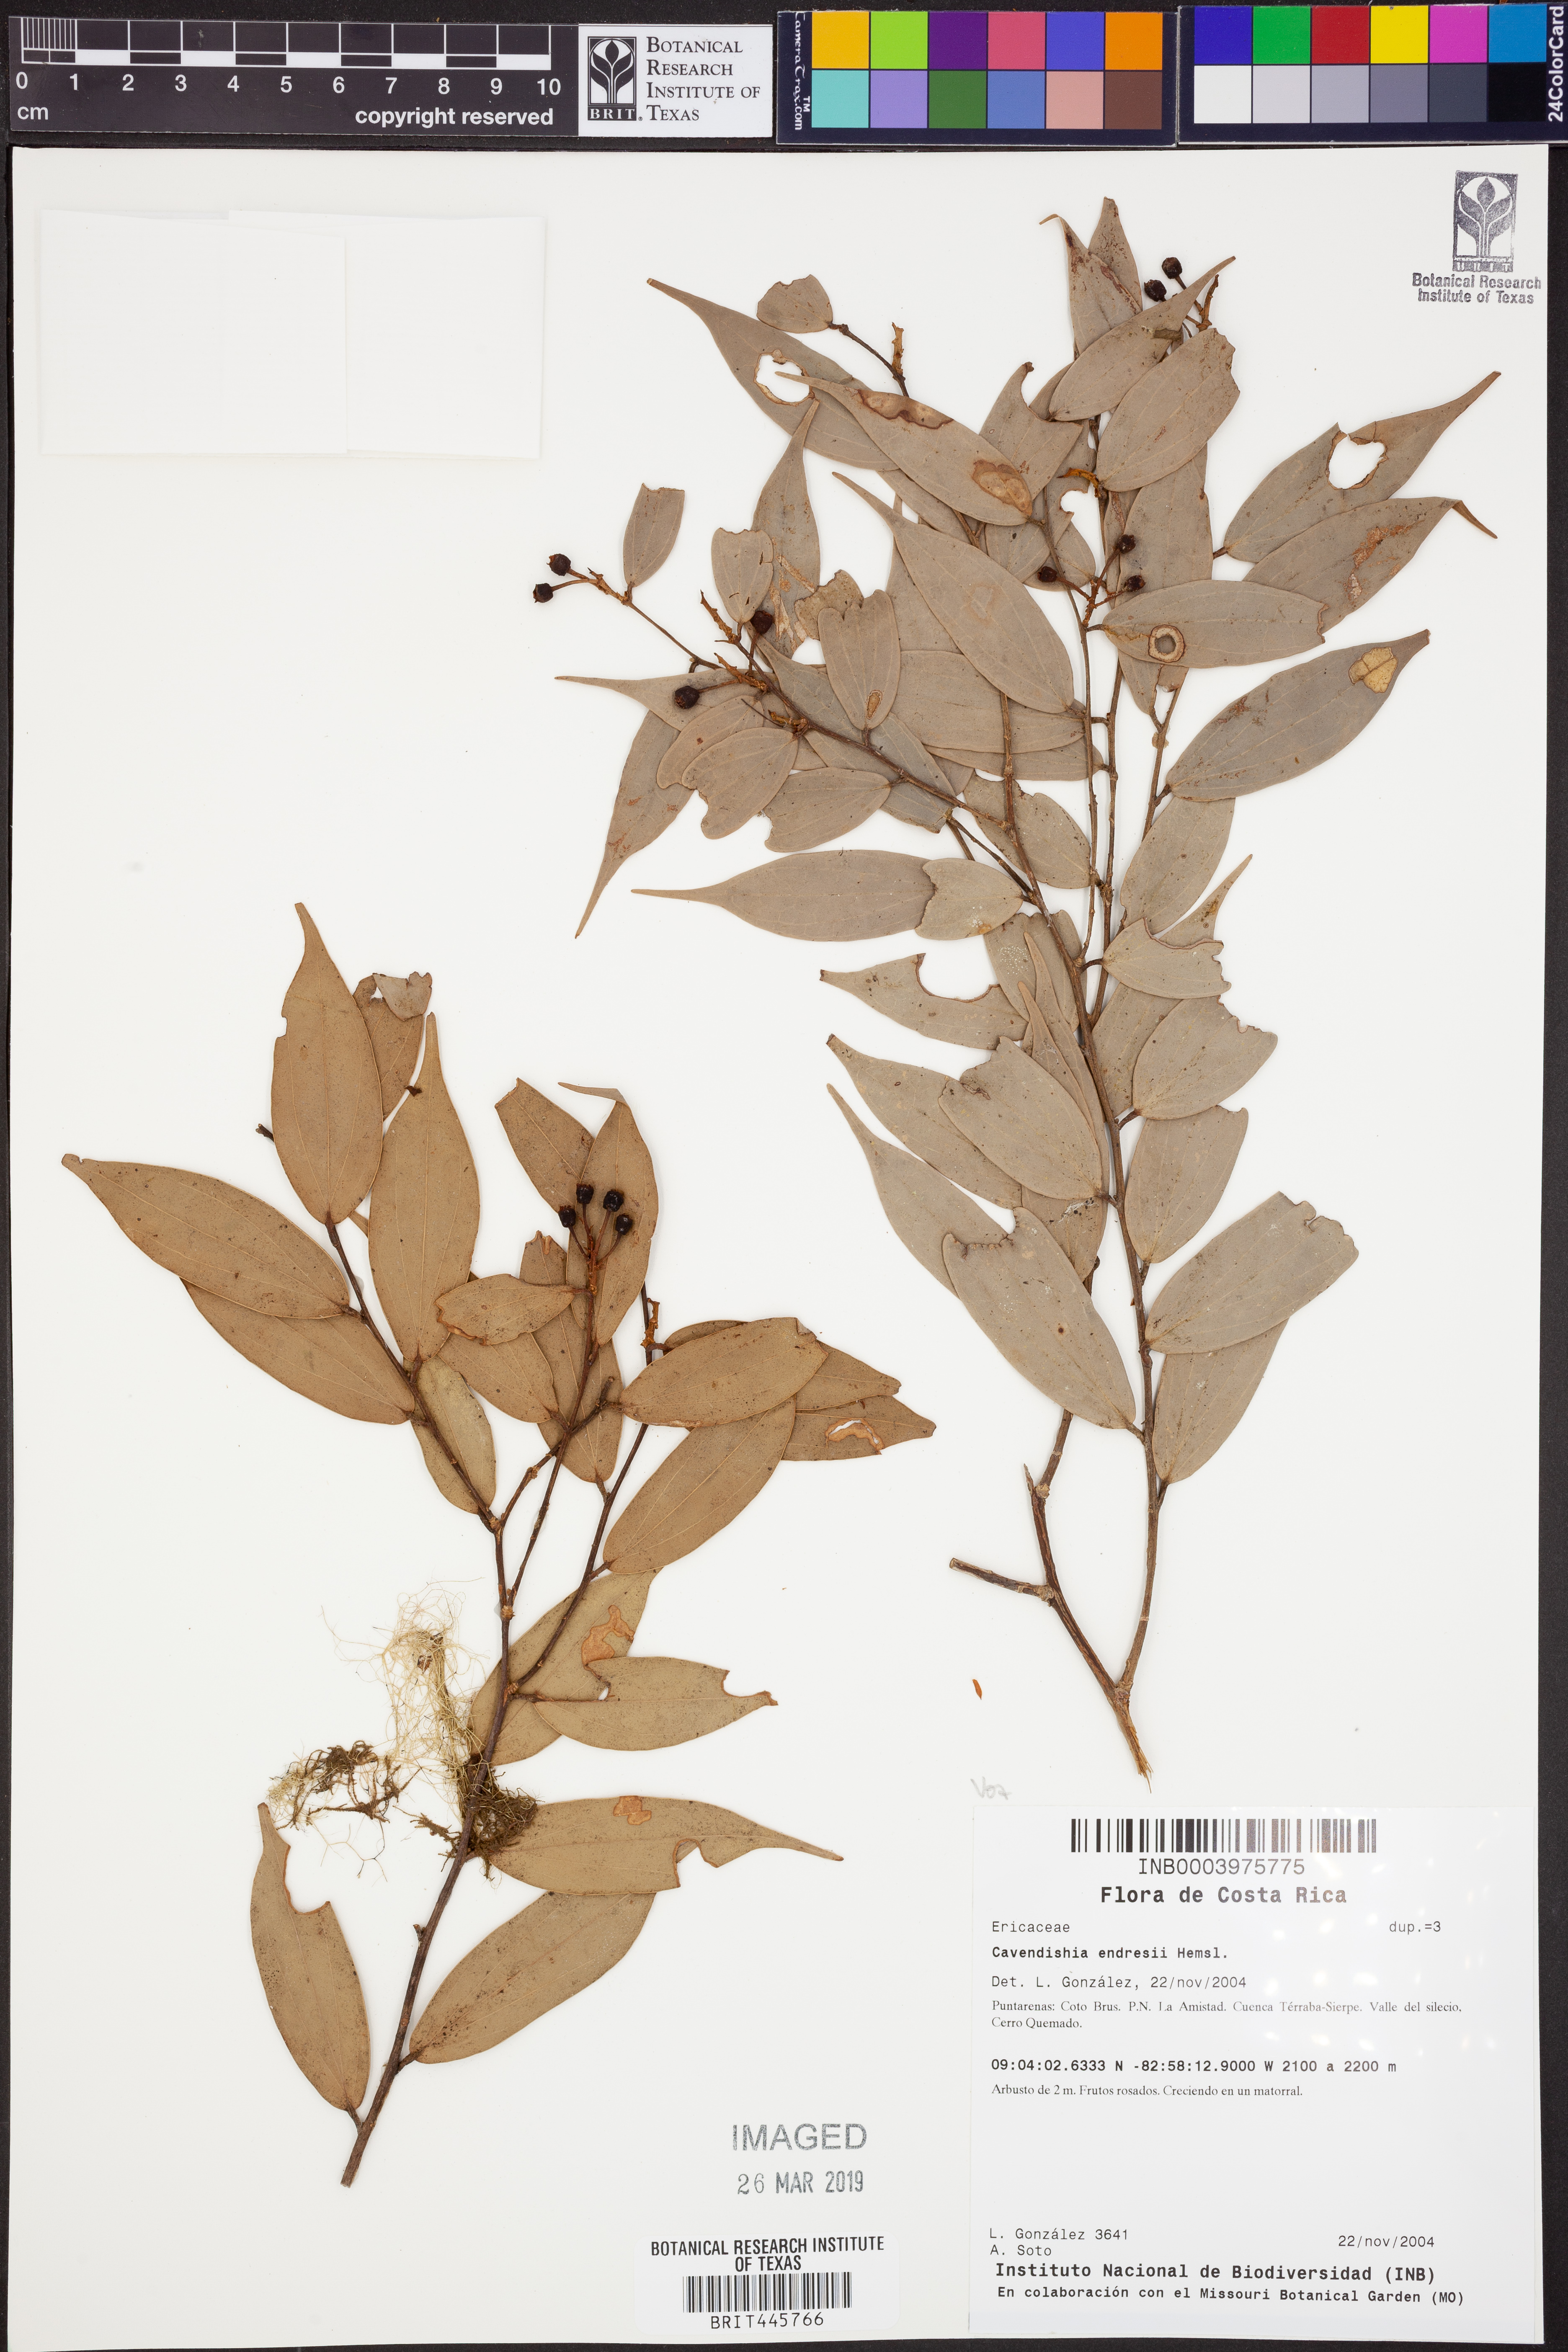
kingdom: Plantae
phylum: Tracheophyta
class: Magnoliopsida
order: Ericales
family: Ericaceae
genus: Cavendishia
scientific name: Cavendishia endresii
